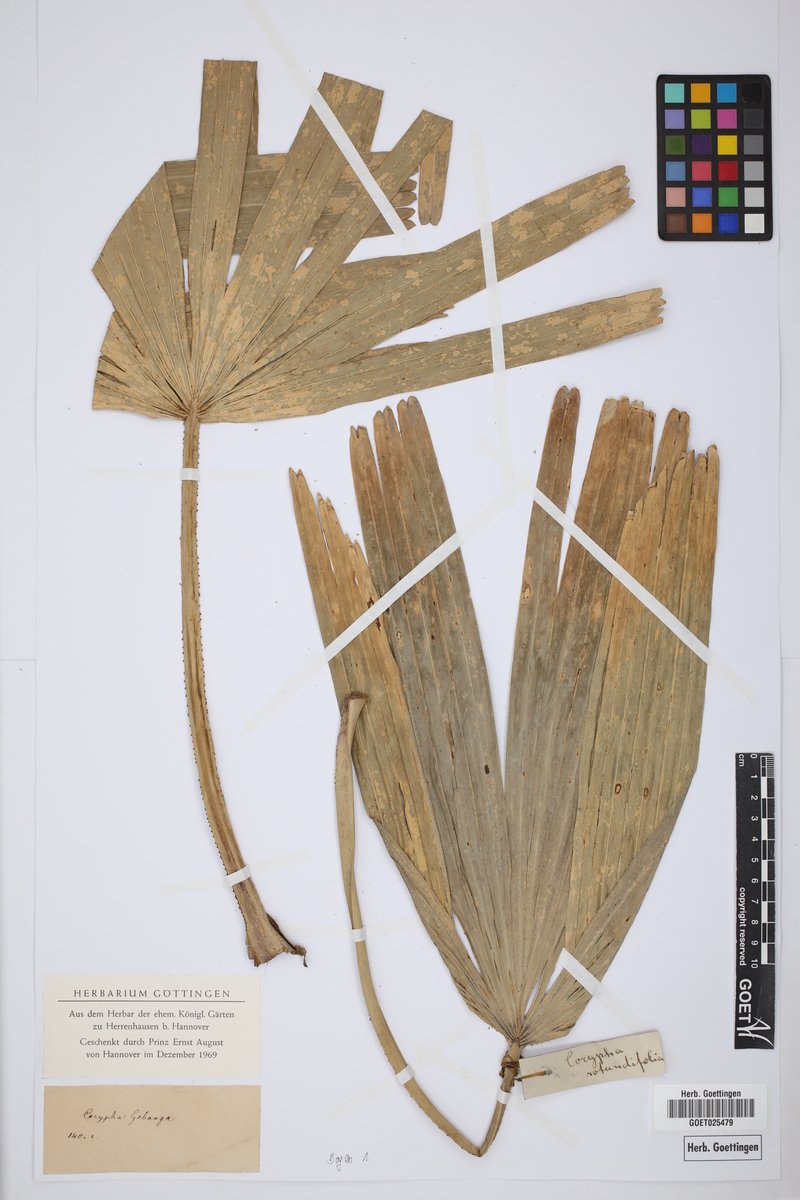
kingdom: Plantae
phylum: Tracheophyta
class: Liliopsida
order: Arecales
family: Arecaceae
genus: Saribus
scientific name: Saribus rotundifolius
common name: Palm
